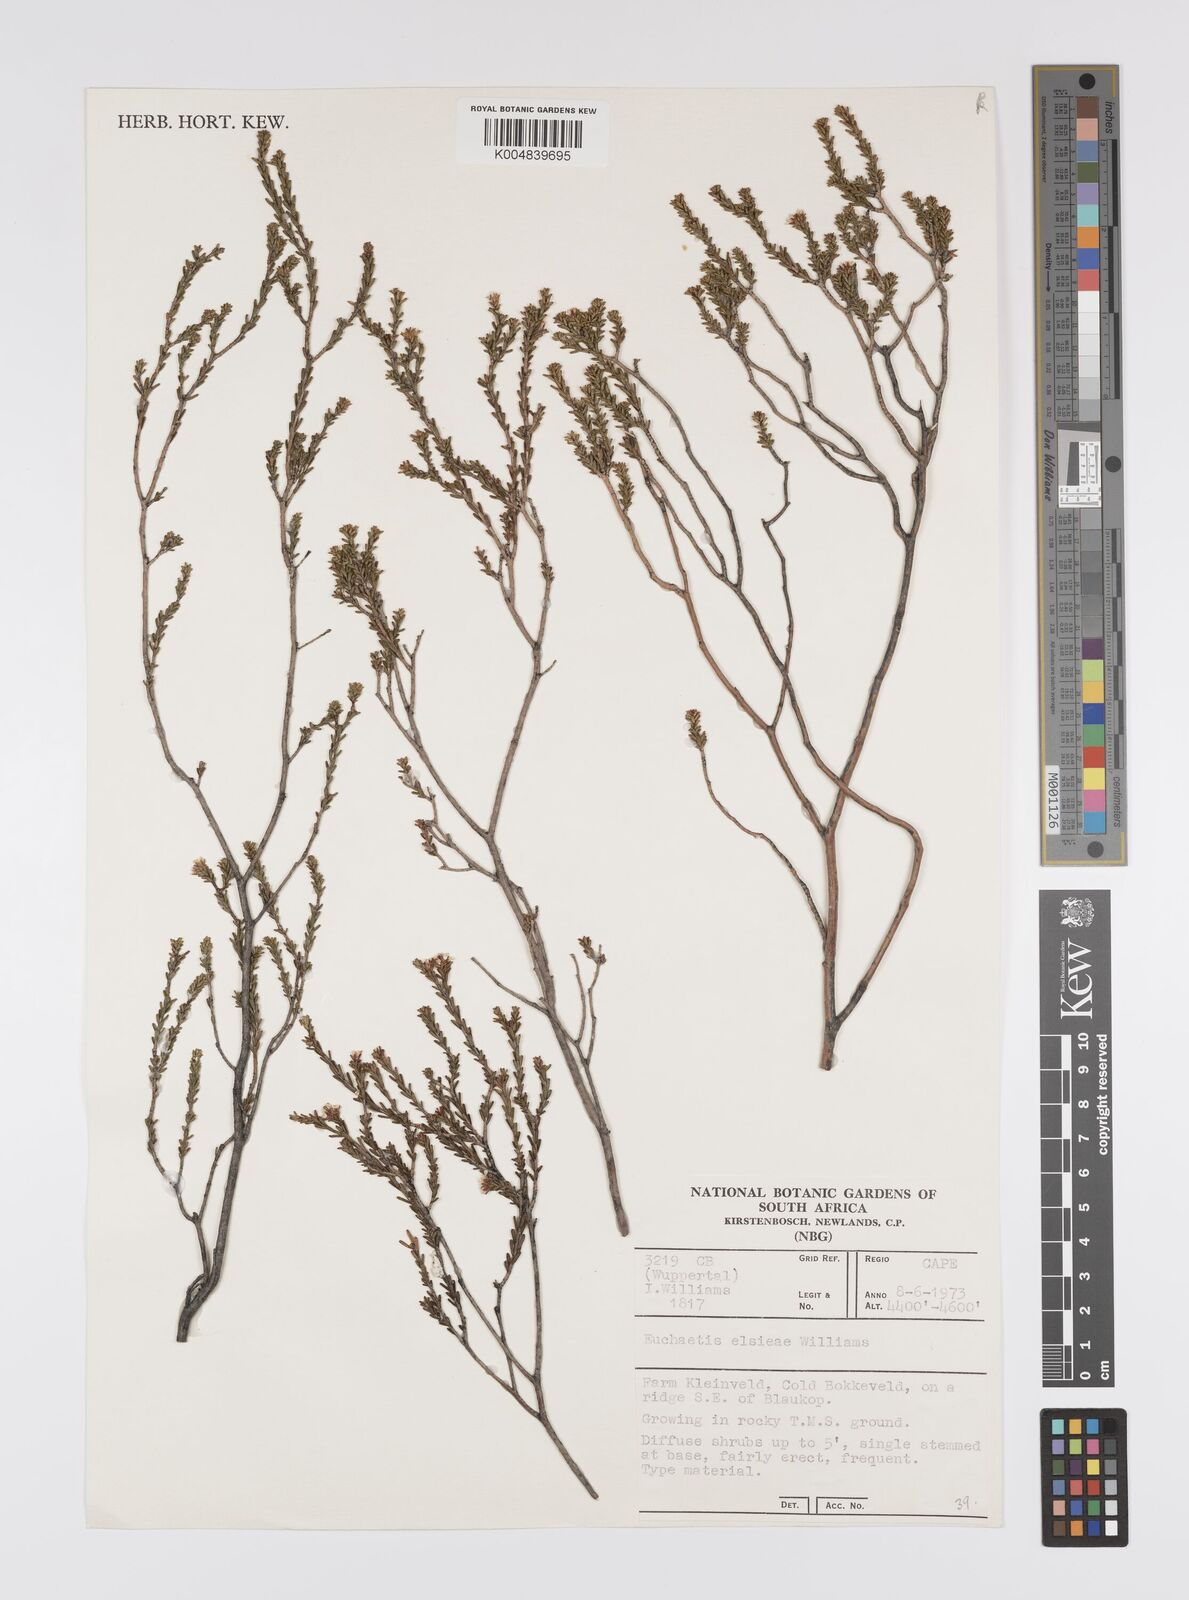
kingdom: Plantae
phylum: Tracheophyta
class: Magnoliopsida
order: Sapindales
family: Rutaceae
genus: Euchaetis
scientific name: Euchaetis elsieae
